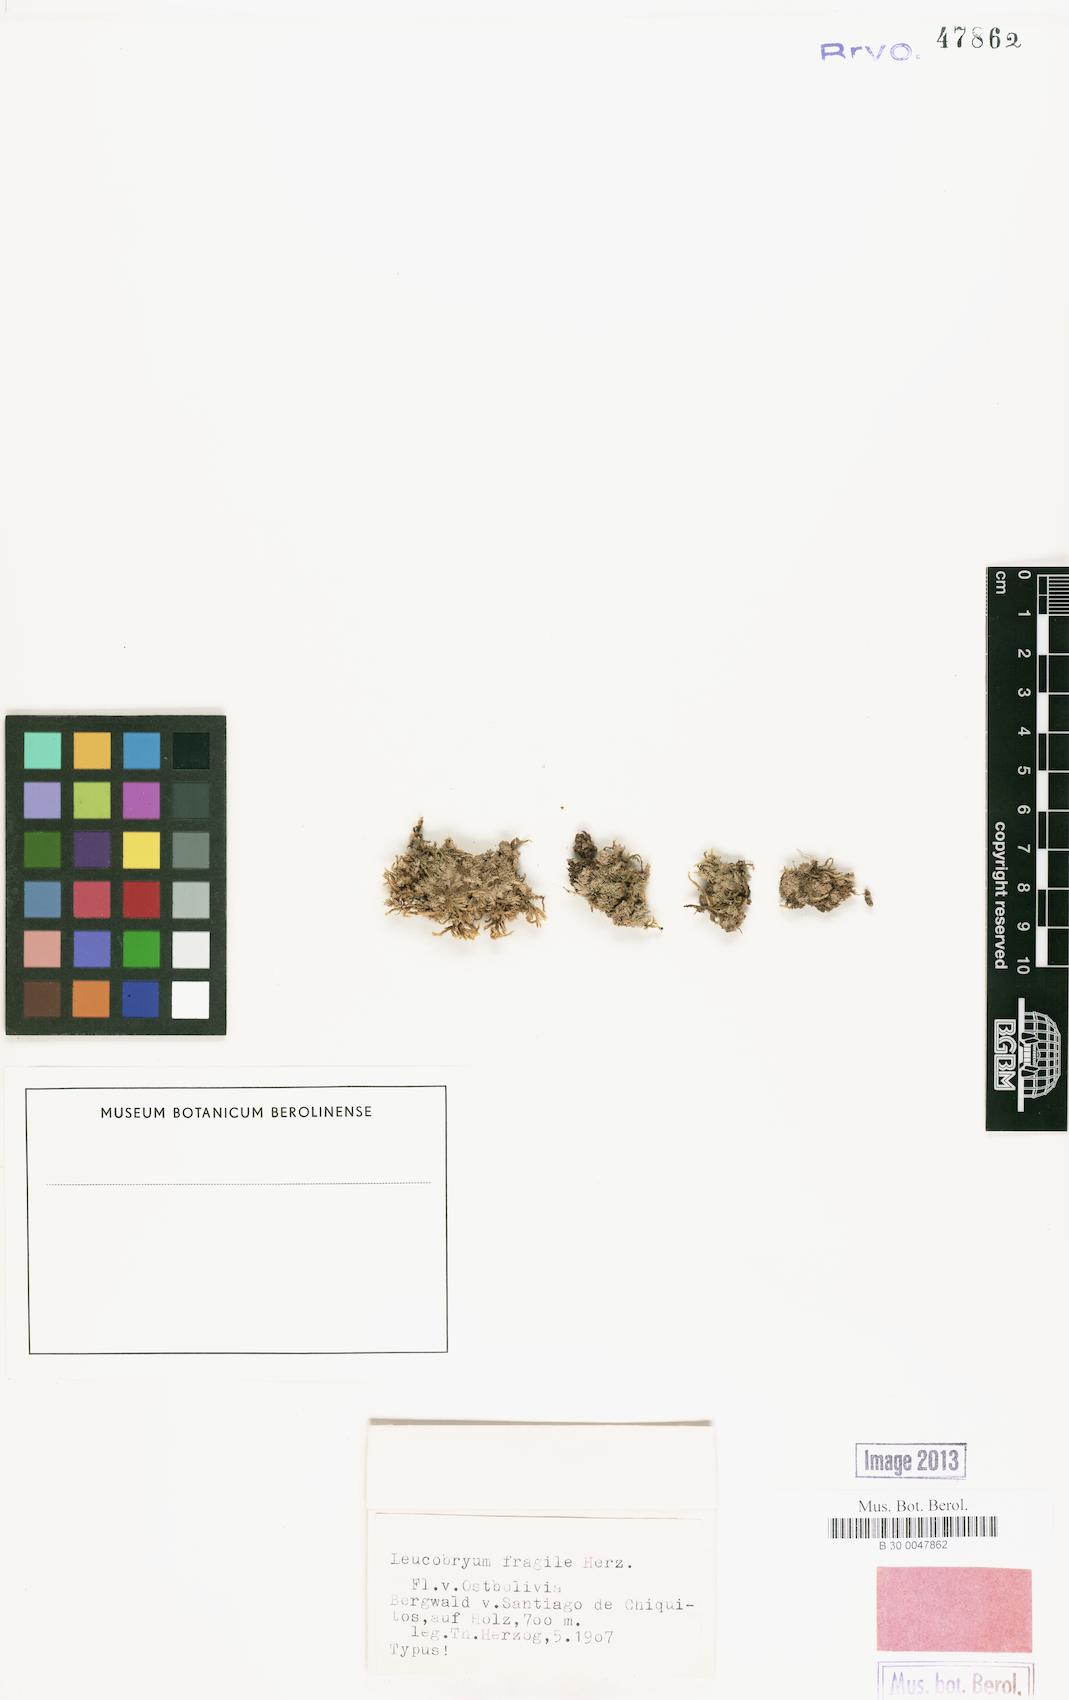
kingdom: Plantae
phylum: Bryophyta
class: Bryopsida
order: Dicranales
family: Leucobryaceae
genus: Leucobryum
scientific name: Leucobryum subobtusifolium
